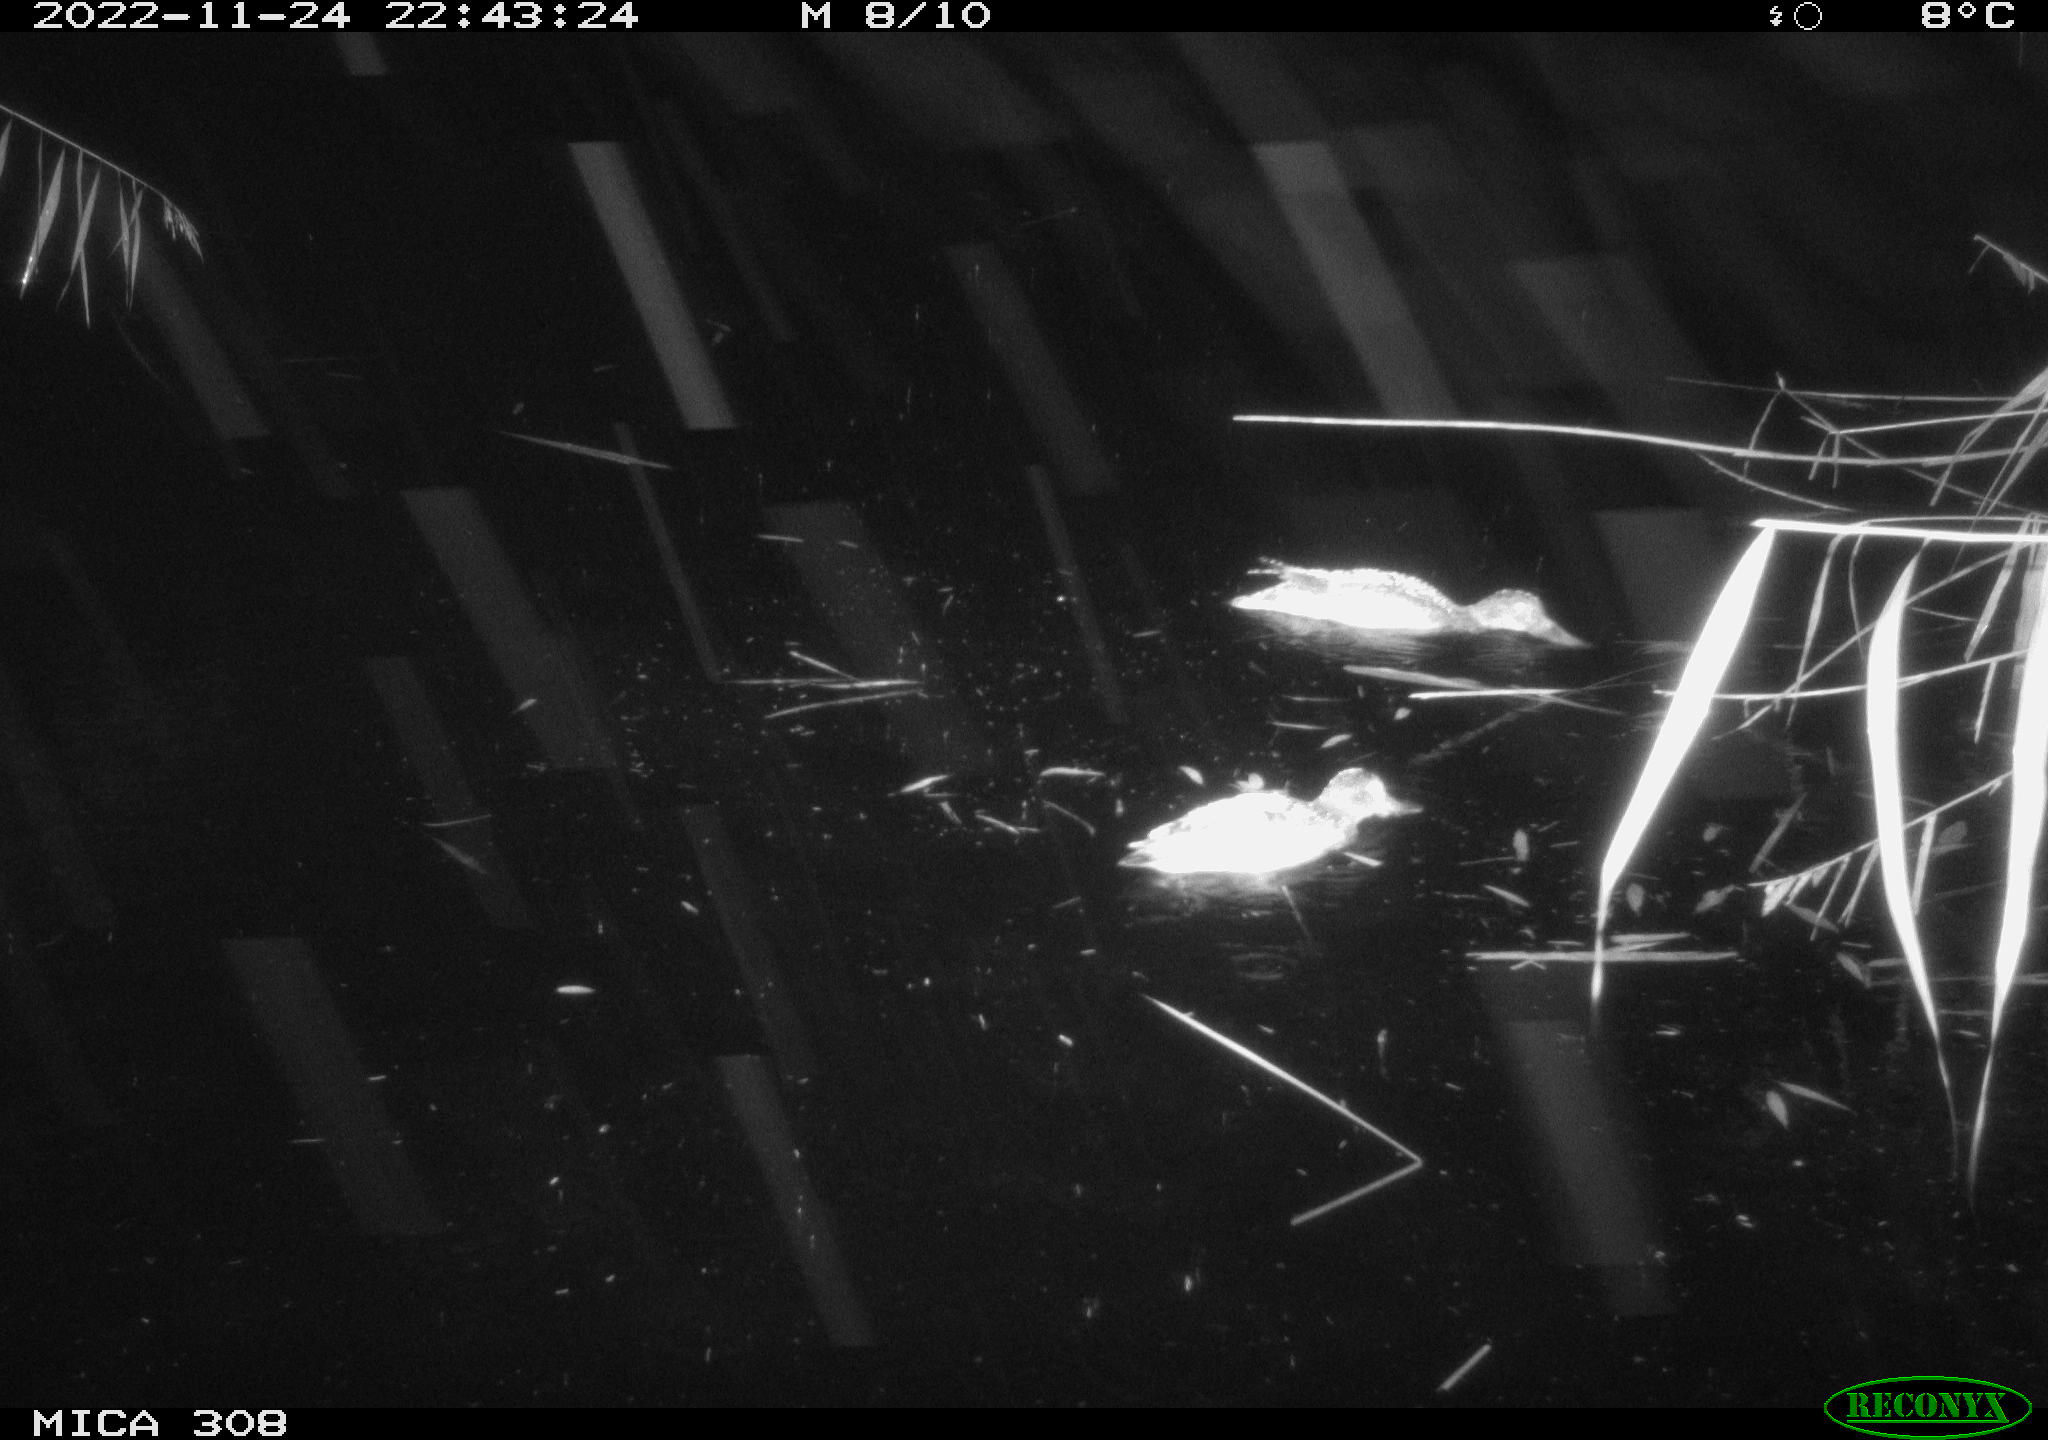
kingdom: Animalia
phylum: Chordata
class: Aves
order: Anseriformes
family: Anatidae
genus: Anas
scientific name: Anas
